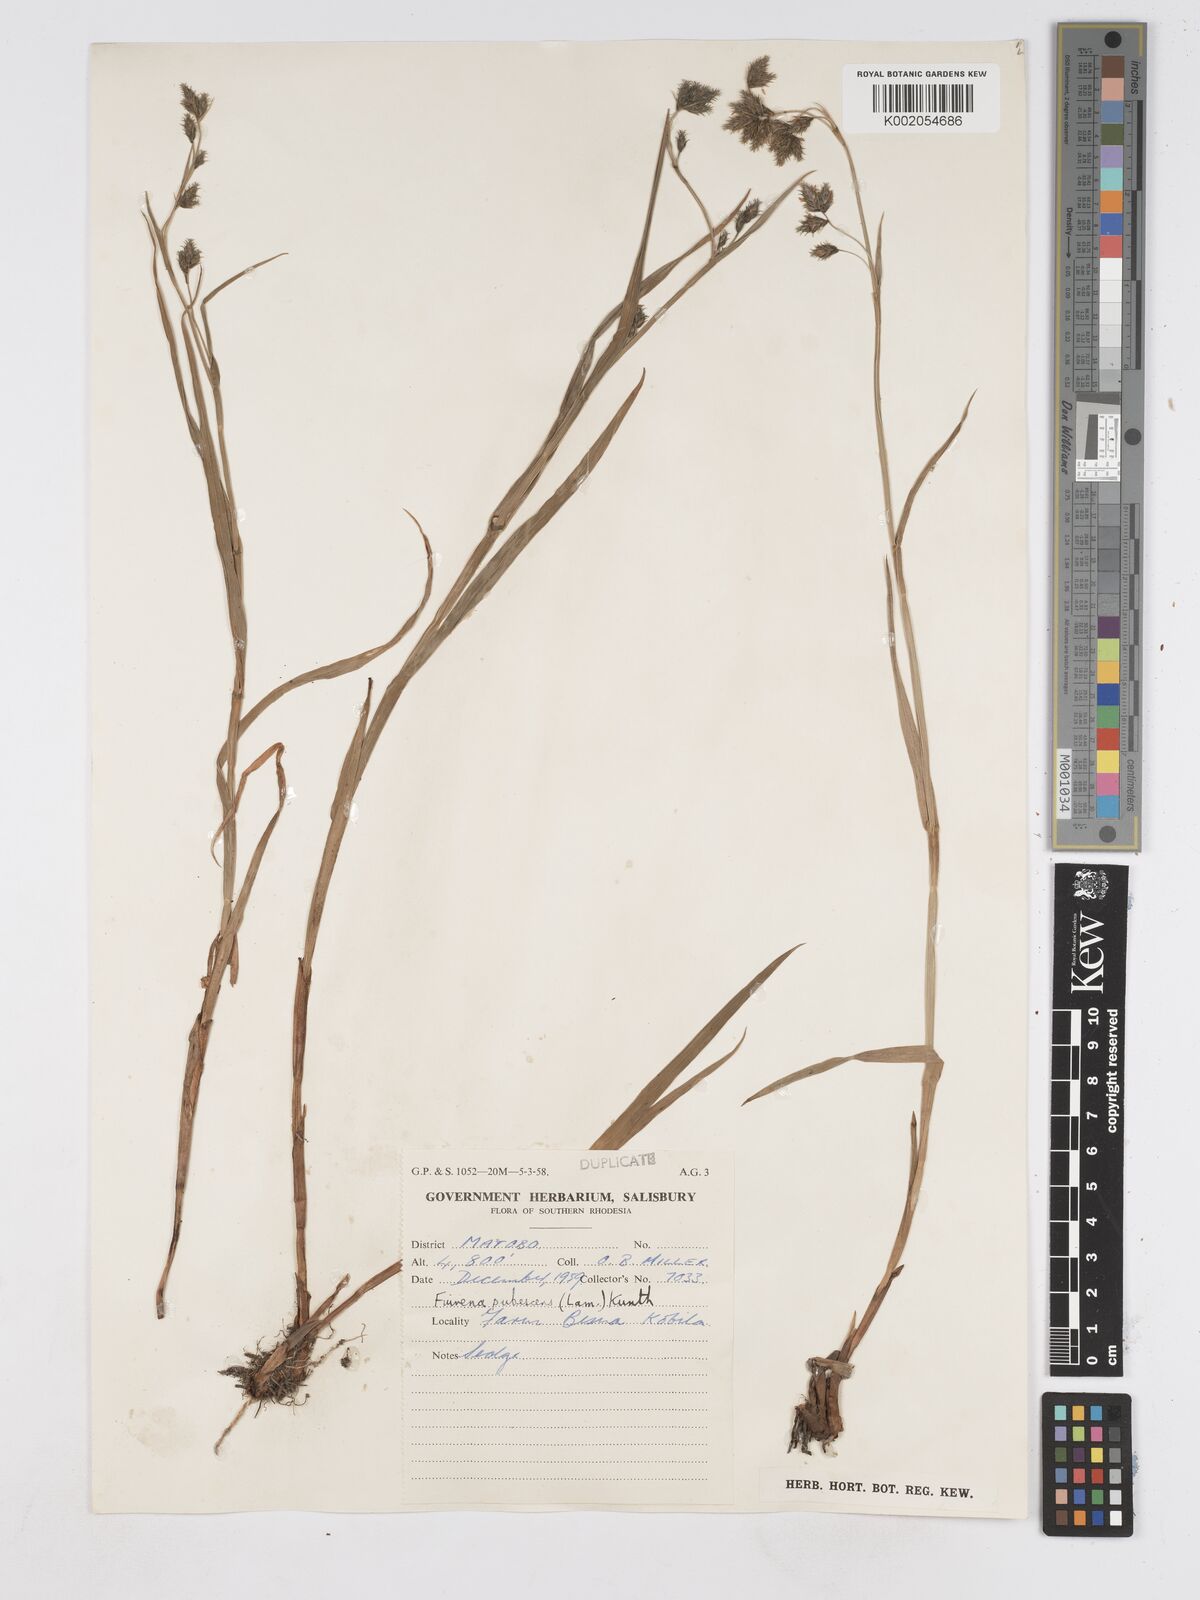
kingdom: Plantae
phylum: Tracheophyta
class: Liliopsida
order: Poales
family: Cyperaceae
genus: Fuirena
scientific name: Fuirena pachyrrhiza
